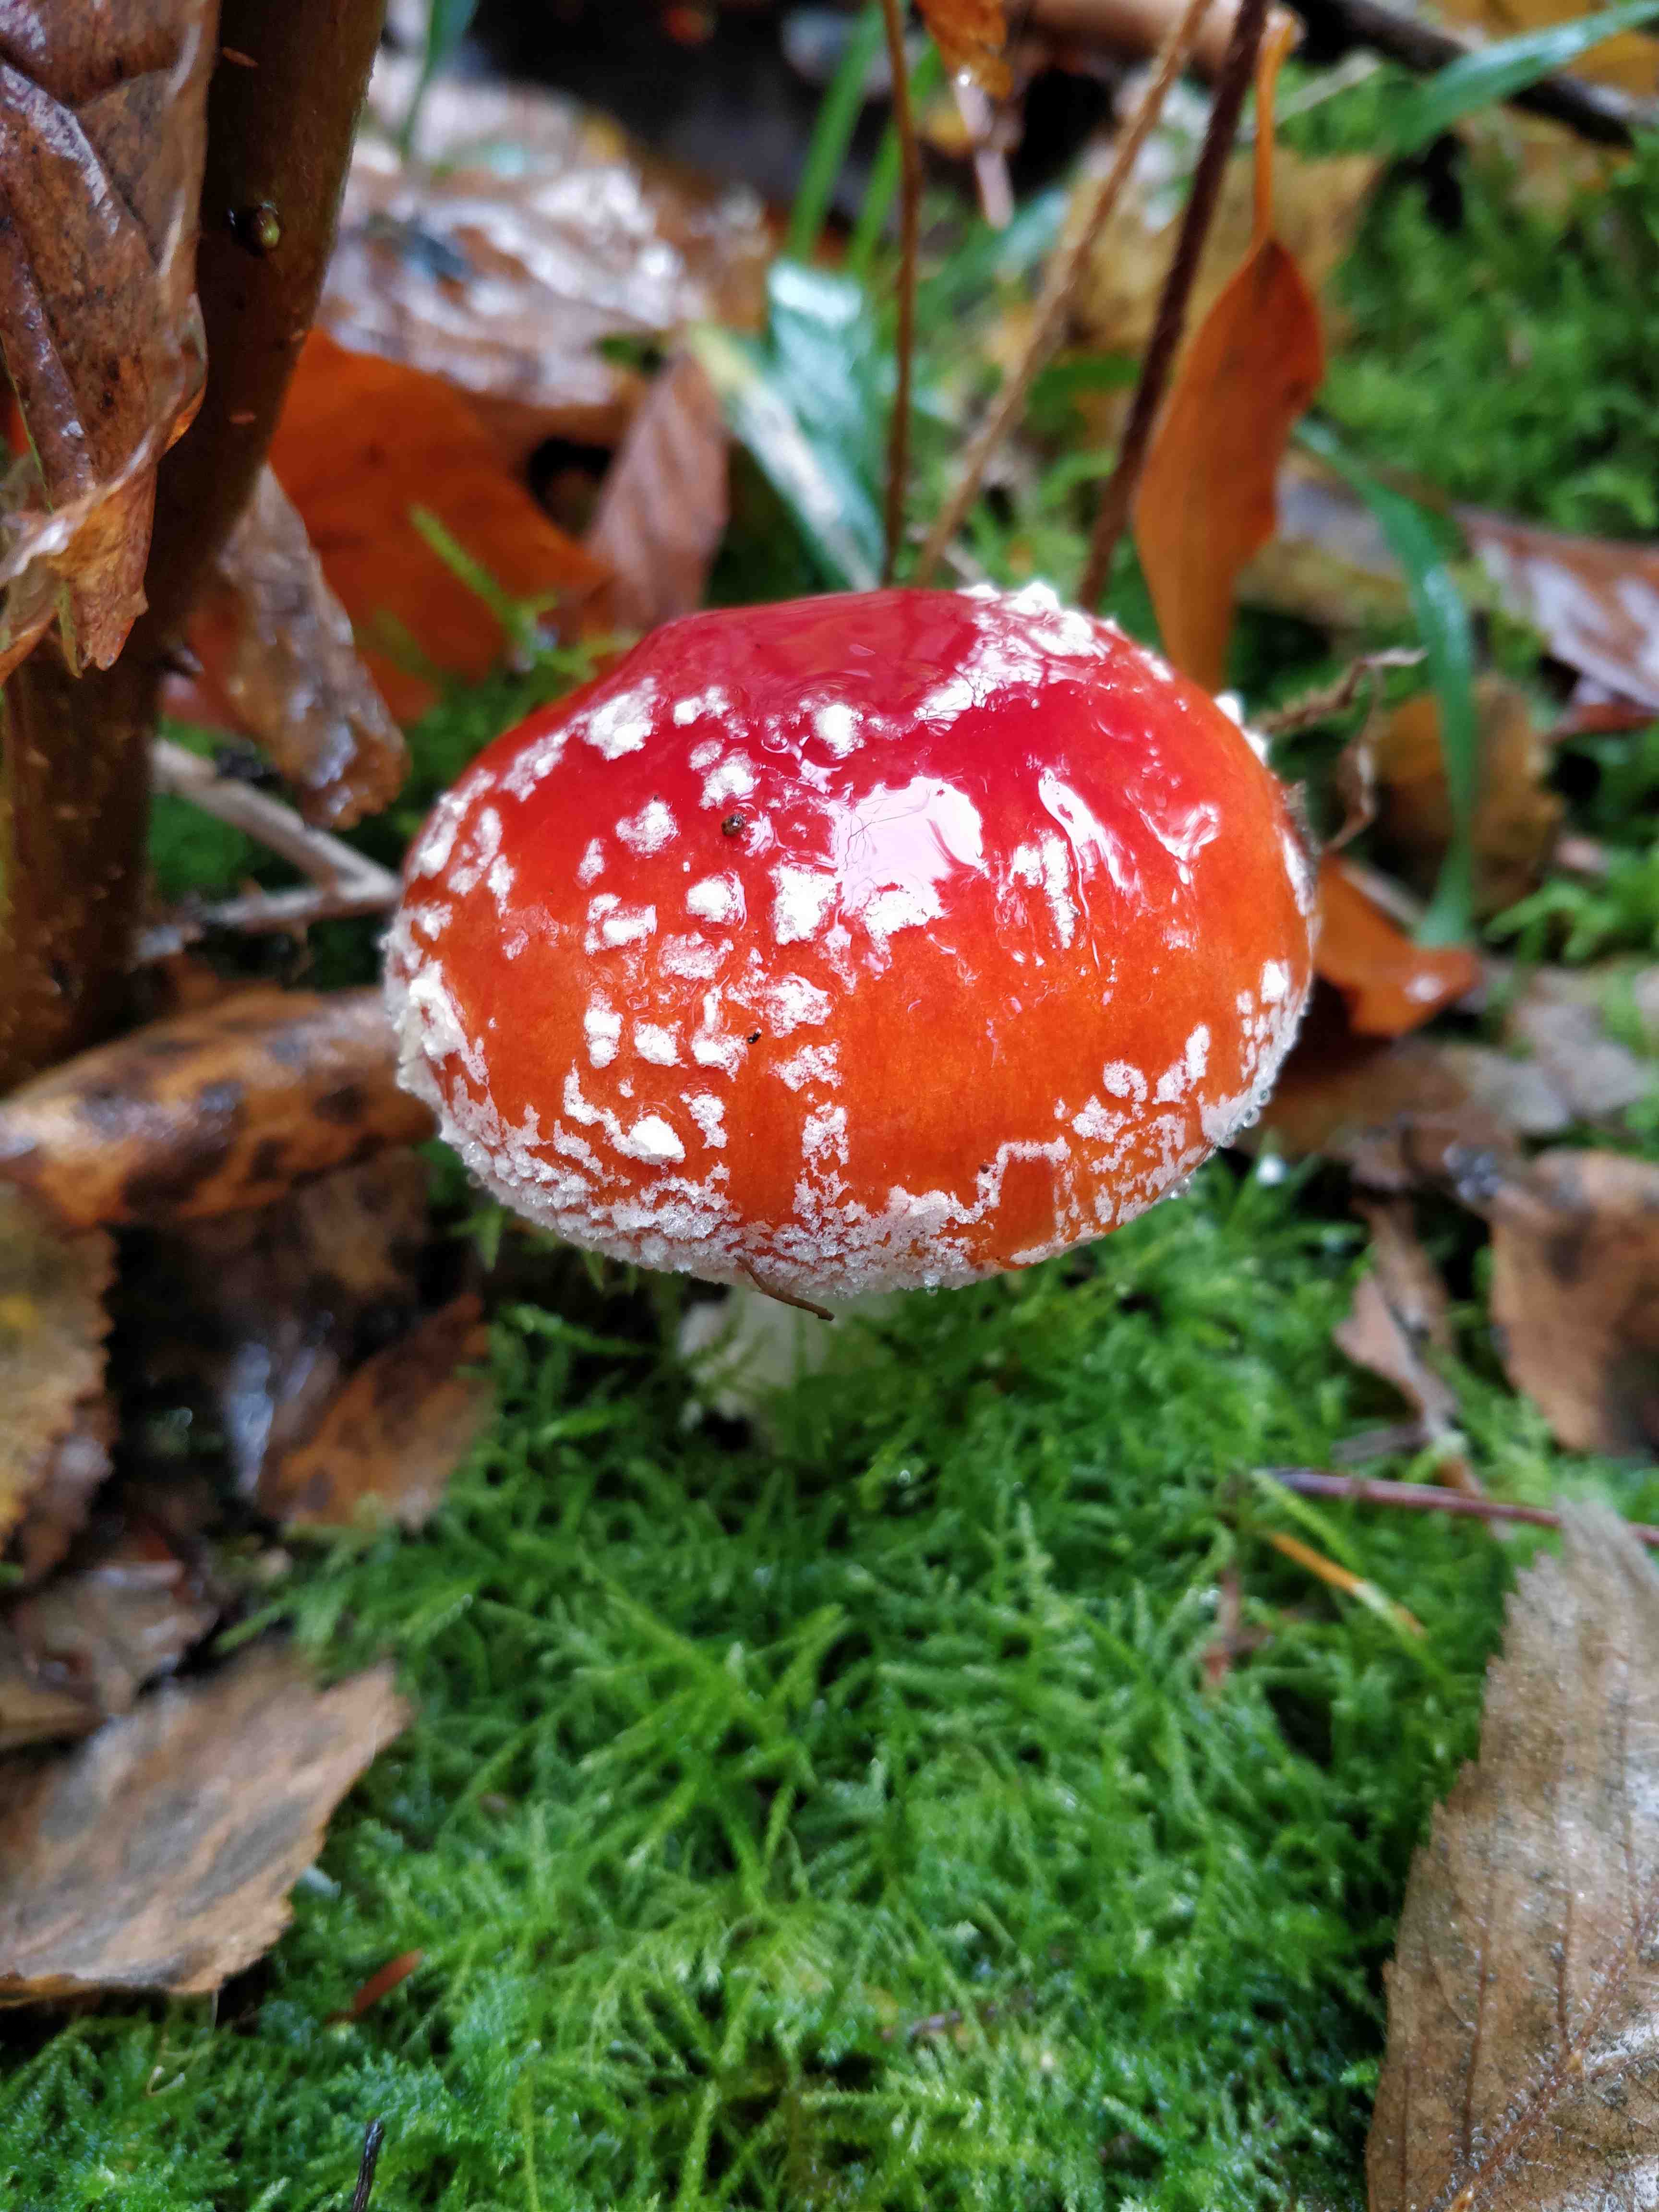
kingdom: Fungi
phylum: Basidiomycota
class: Agaricomycetes
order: Agaricales
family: Amanitaceae
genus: Amanita
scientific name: Amanita muscaria
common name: rød fluesvamp
